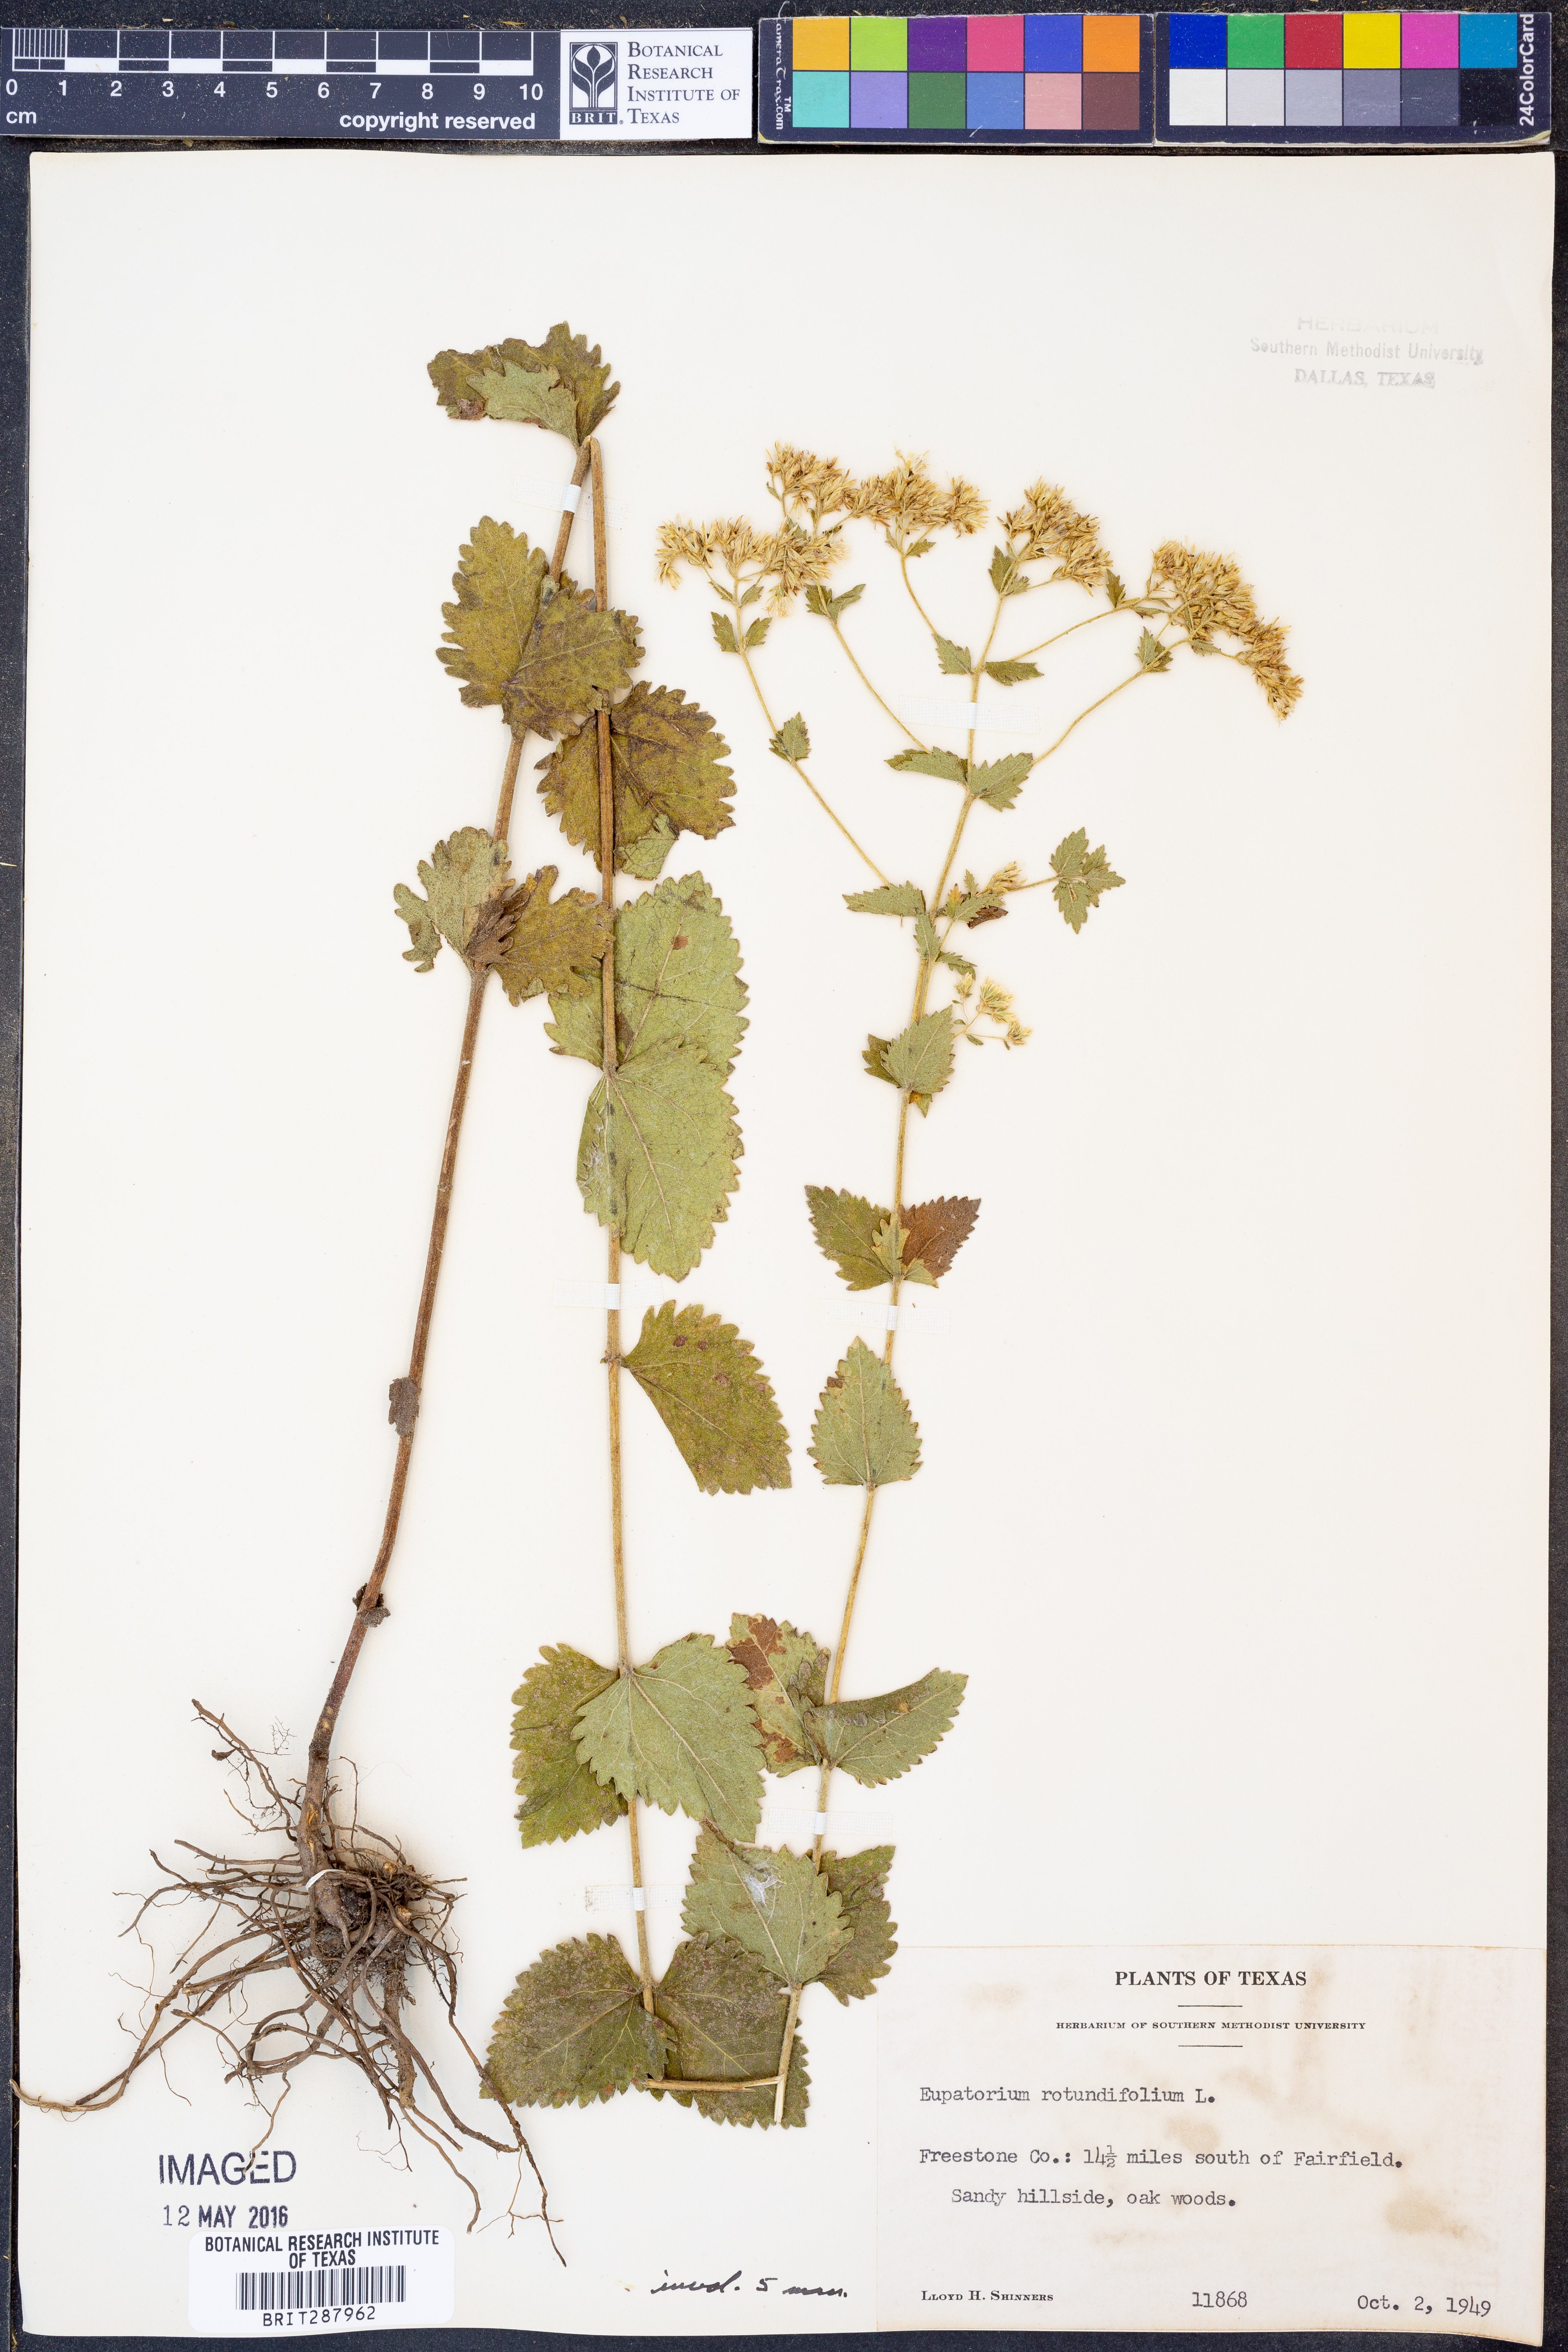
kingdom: Plantae
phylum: Tracheophyta
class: Magnoliopsida
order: Asterales
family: Asteraceae
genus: Eupatorium
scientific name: Eupatorium rotundifolium
